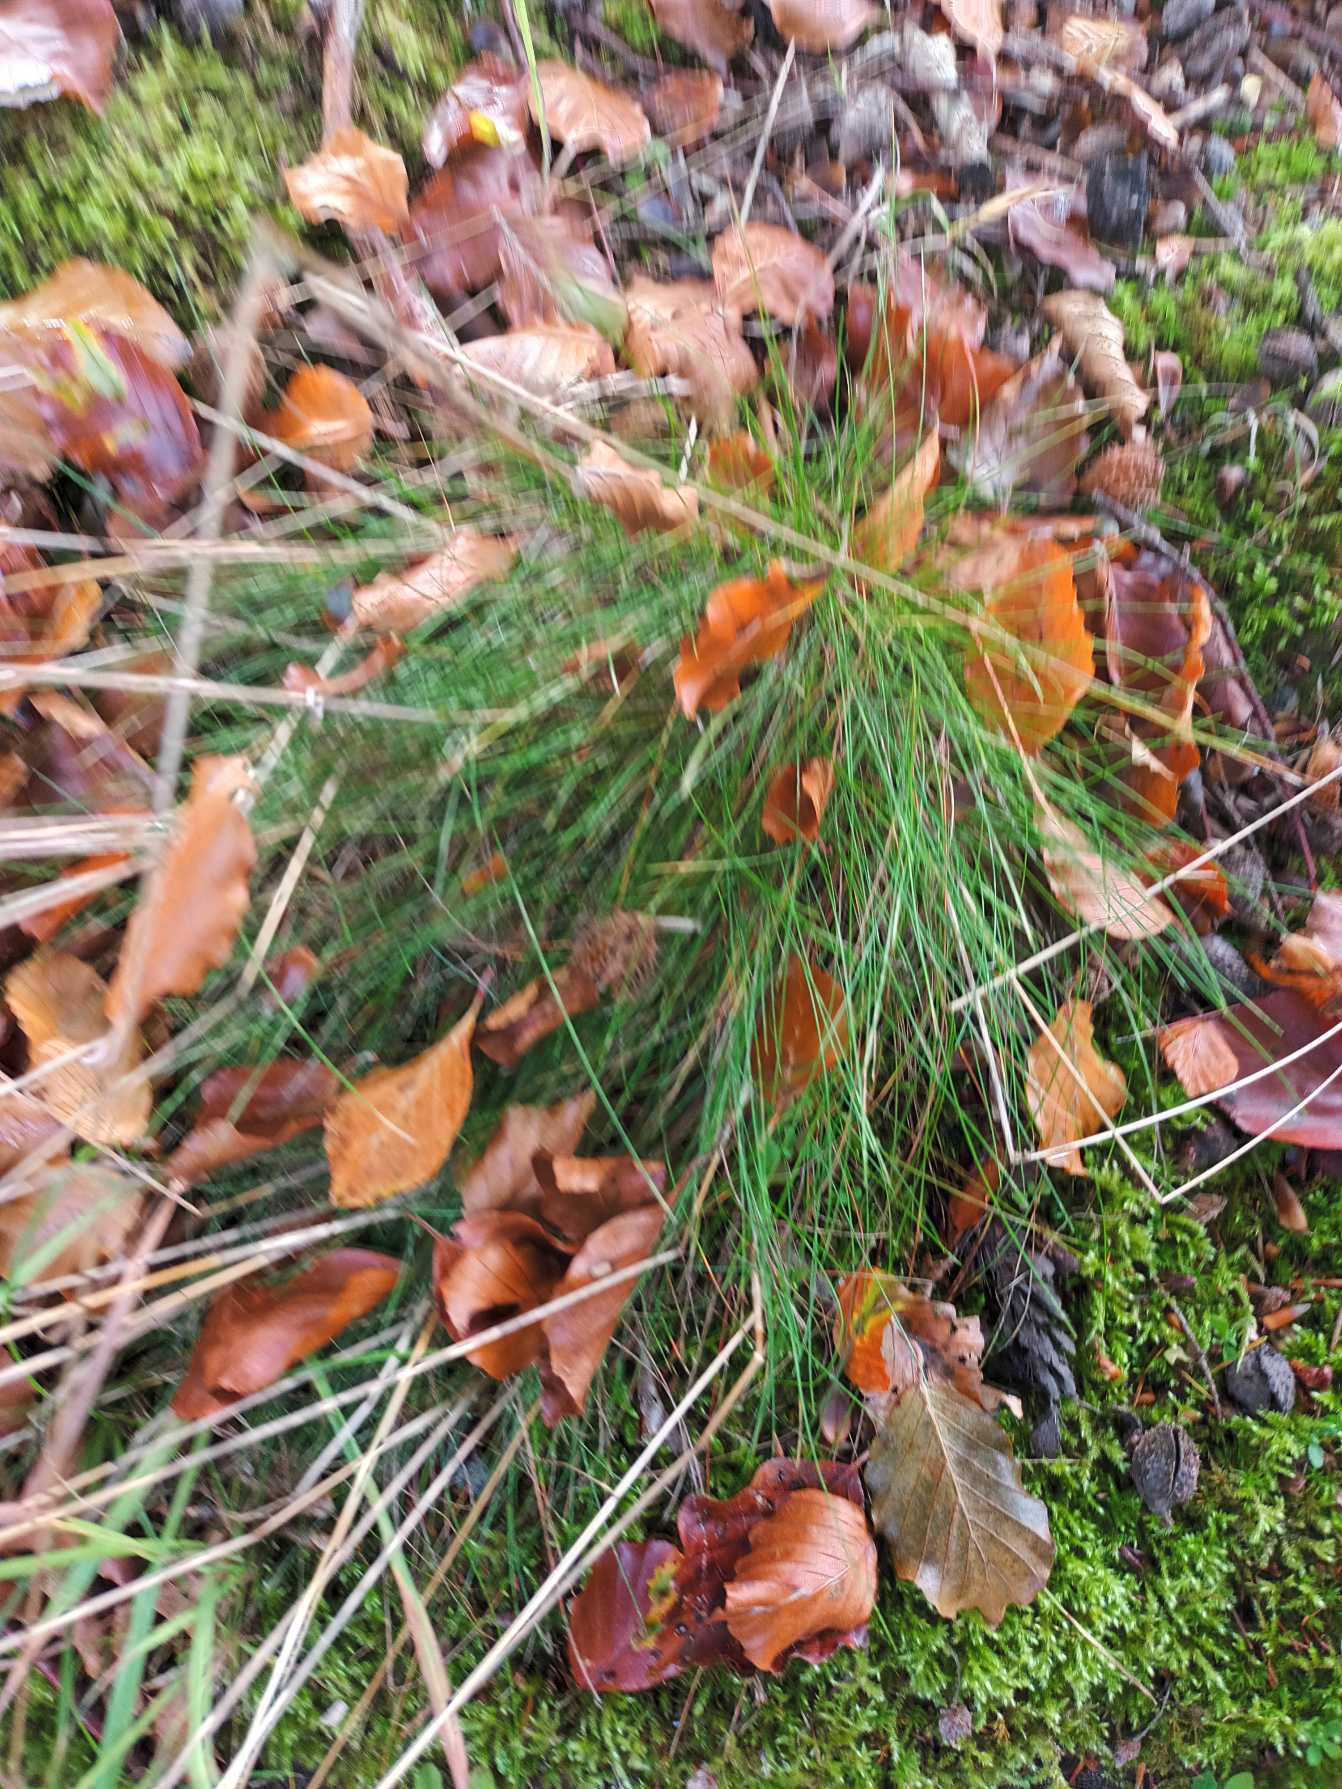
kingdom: Plantae
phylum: Tracheophyta
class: Liliopsida
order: Poales
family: Poaceae
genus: Avenella
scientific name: Avenella flexuosa
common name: Bølget bunke
